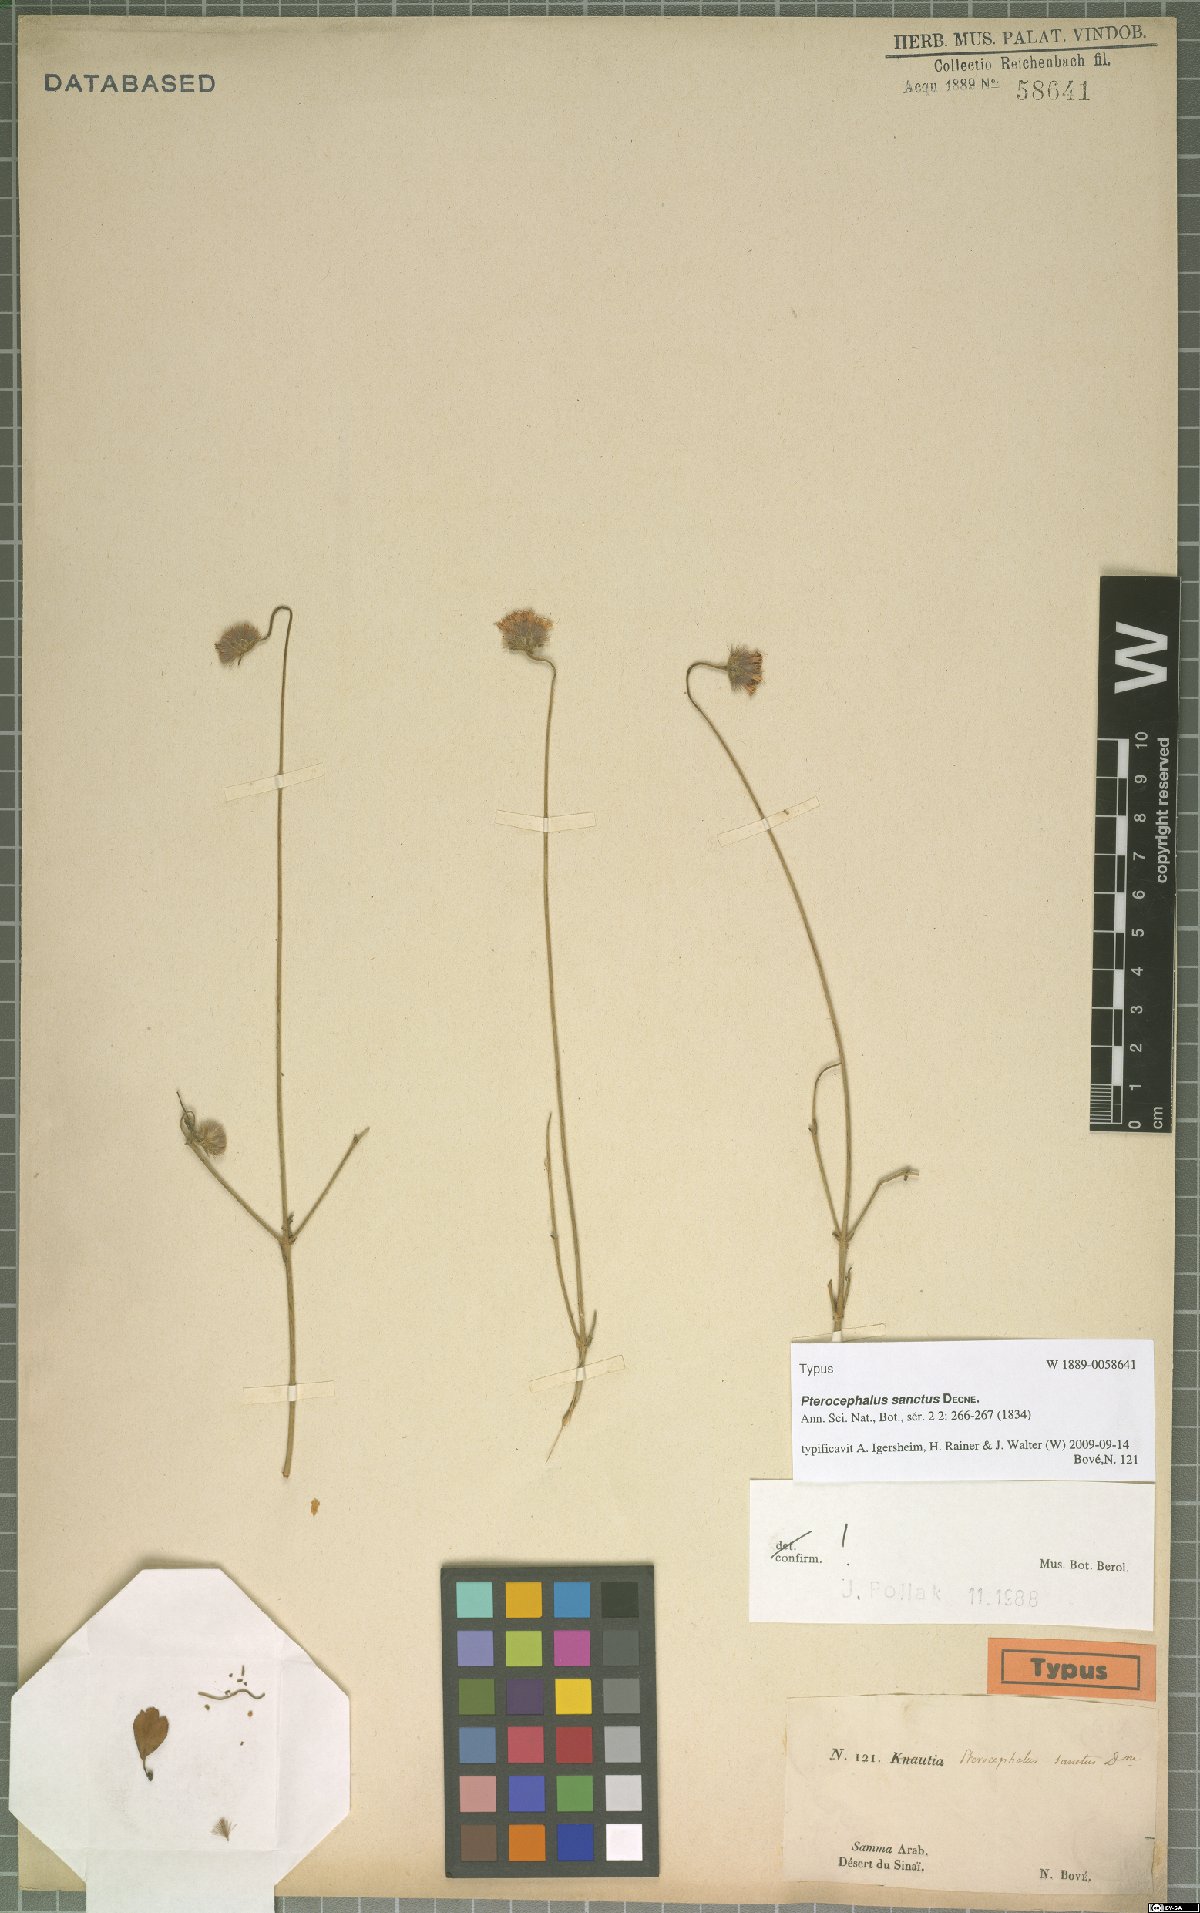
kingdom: Plantae
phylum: Tracheophyta
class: Magnoliopsida
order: Dipsacales
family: Caprifoliaceae
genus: Pterocephalus
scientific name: Pterocephalus sanctus
